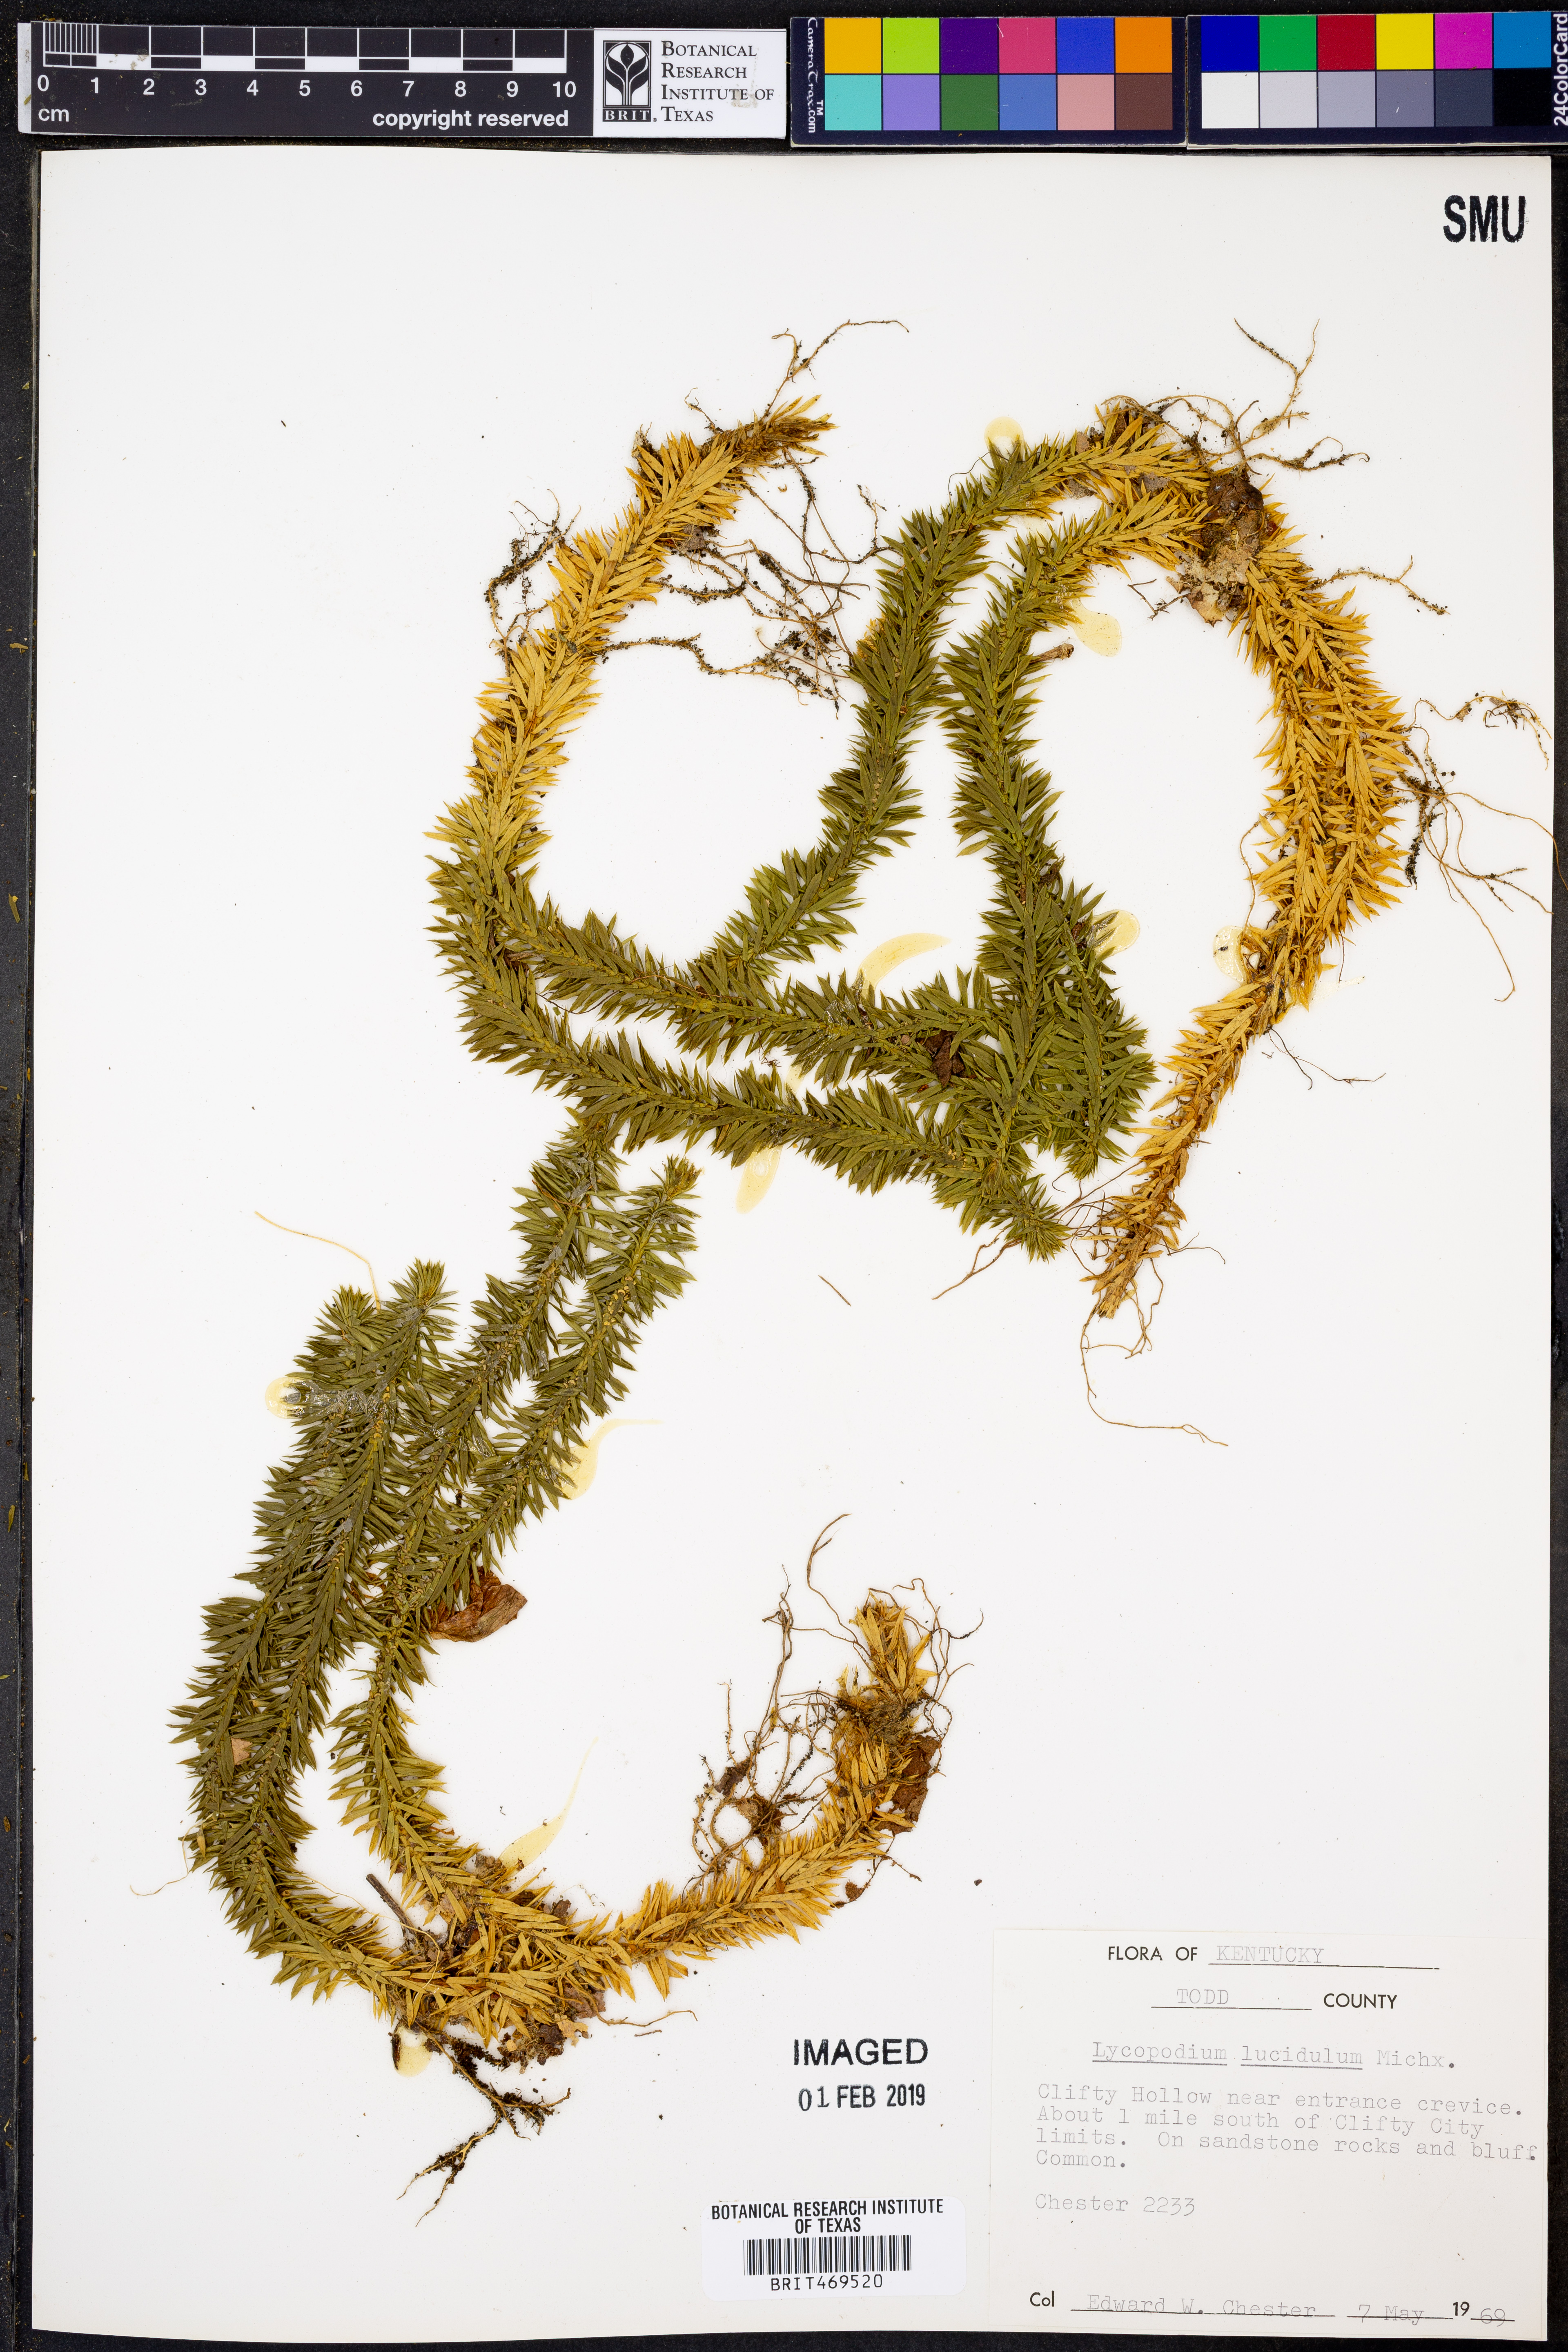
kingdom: Plantae
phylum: Tracheophyta
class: Lycopodiopsida
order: Lycopodiales
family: Lycopodiaceae
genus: Huperzia
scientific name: Huperzia lucidula
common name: Shining clubmoss
